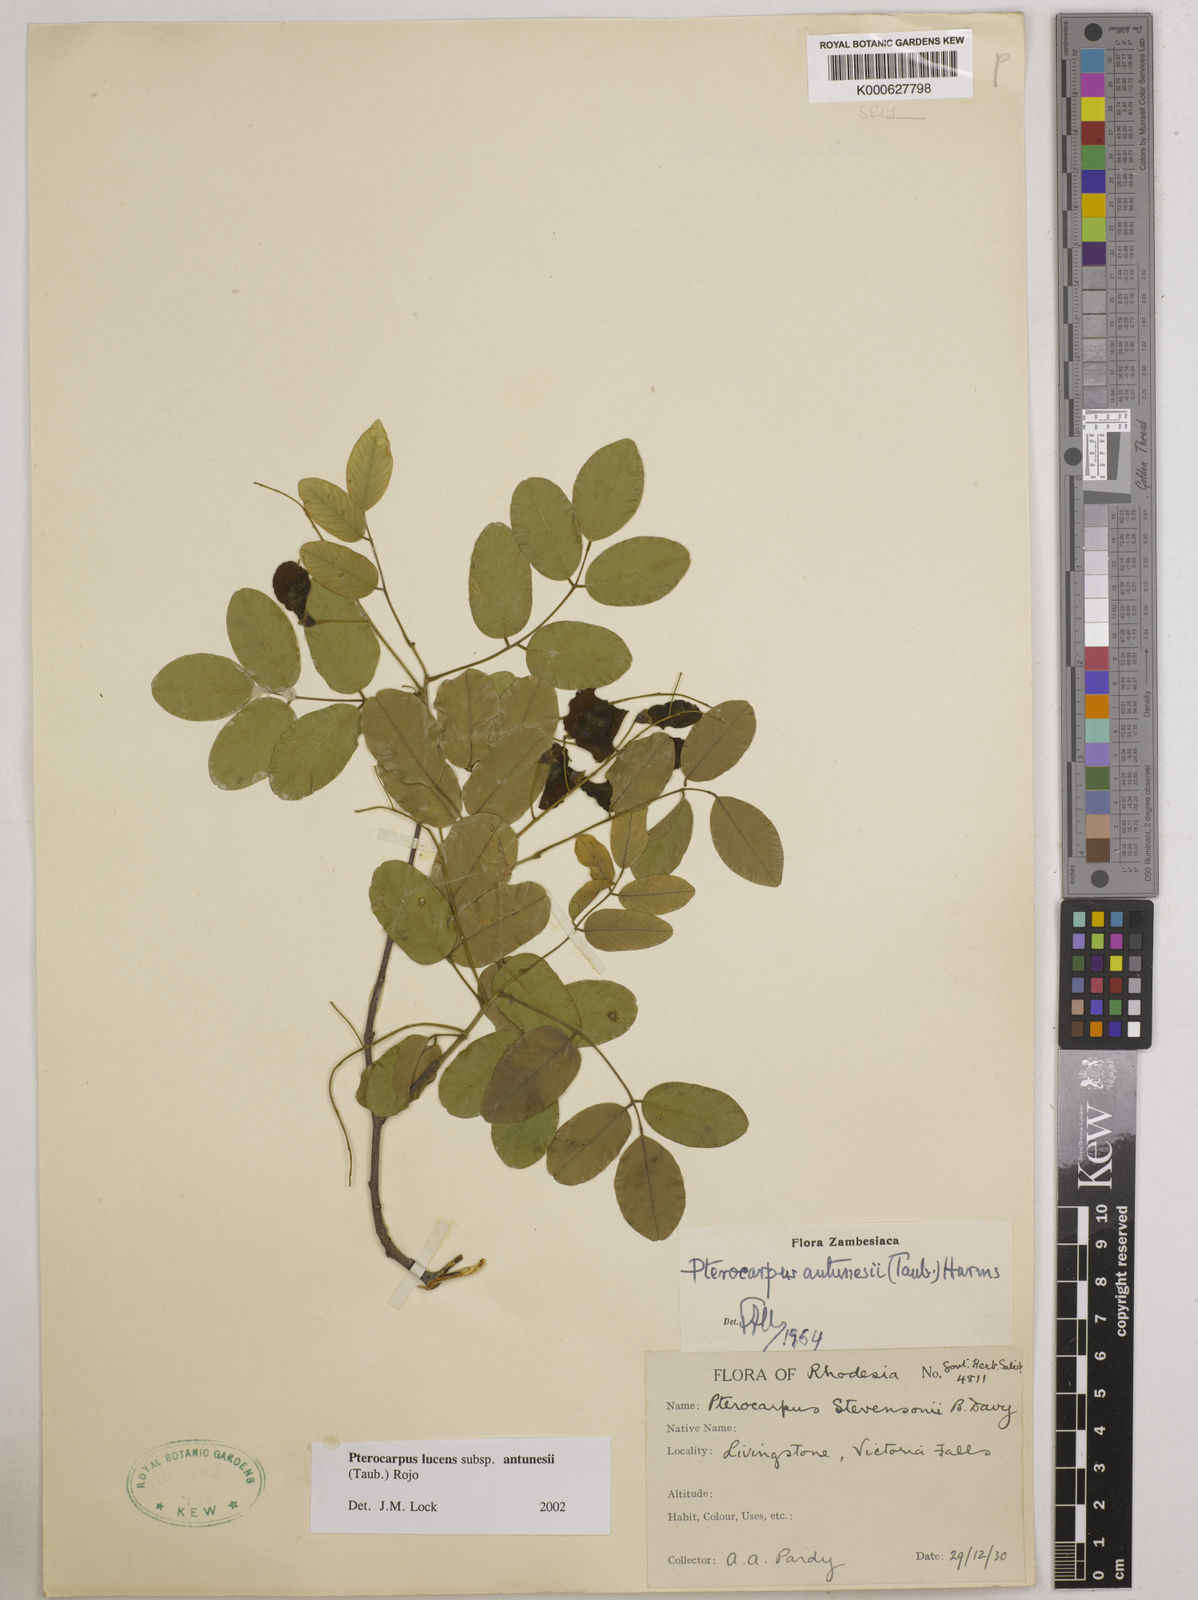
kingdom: Plantae
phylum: Tracheophyta
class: Magnoliopsida
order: Fabales
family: Fabaceae
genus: Pterocarpus
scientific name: Pterocarpus lucens
